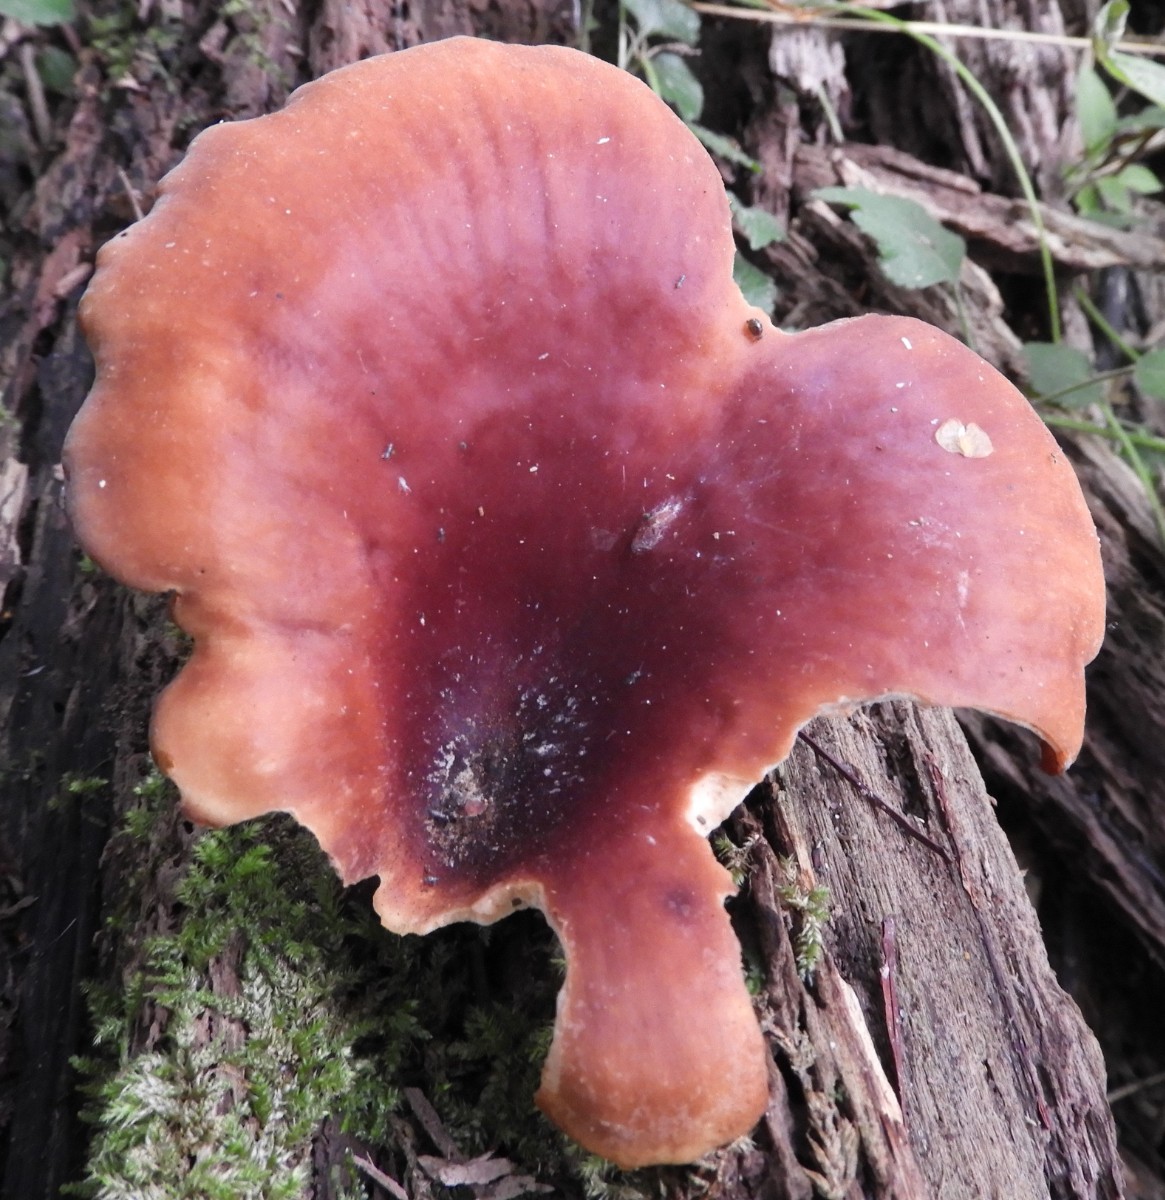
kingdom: Fungi
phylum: Basidiomycota
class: Agaricomycetes
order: Polyporales
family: Polyporaceae
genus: Picipes
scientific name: Picipes badius
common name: kastaniebrun stilkporesvamp
